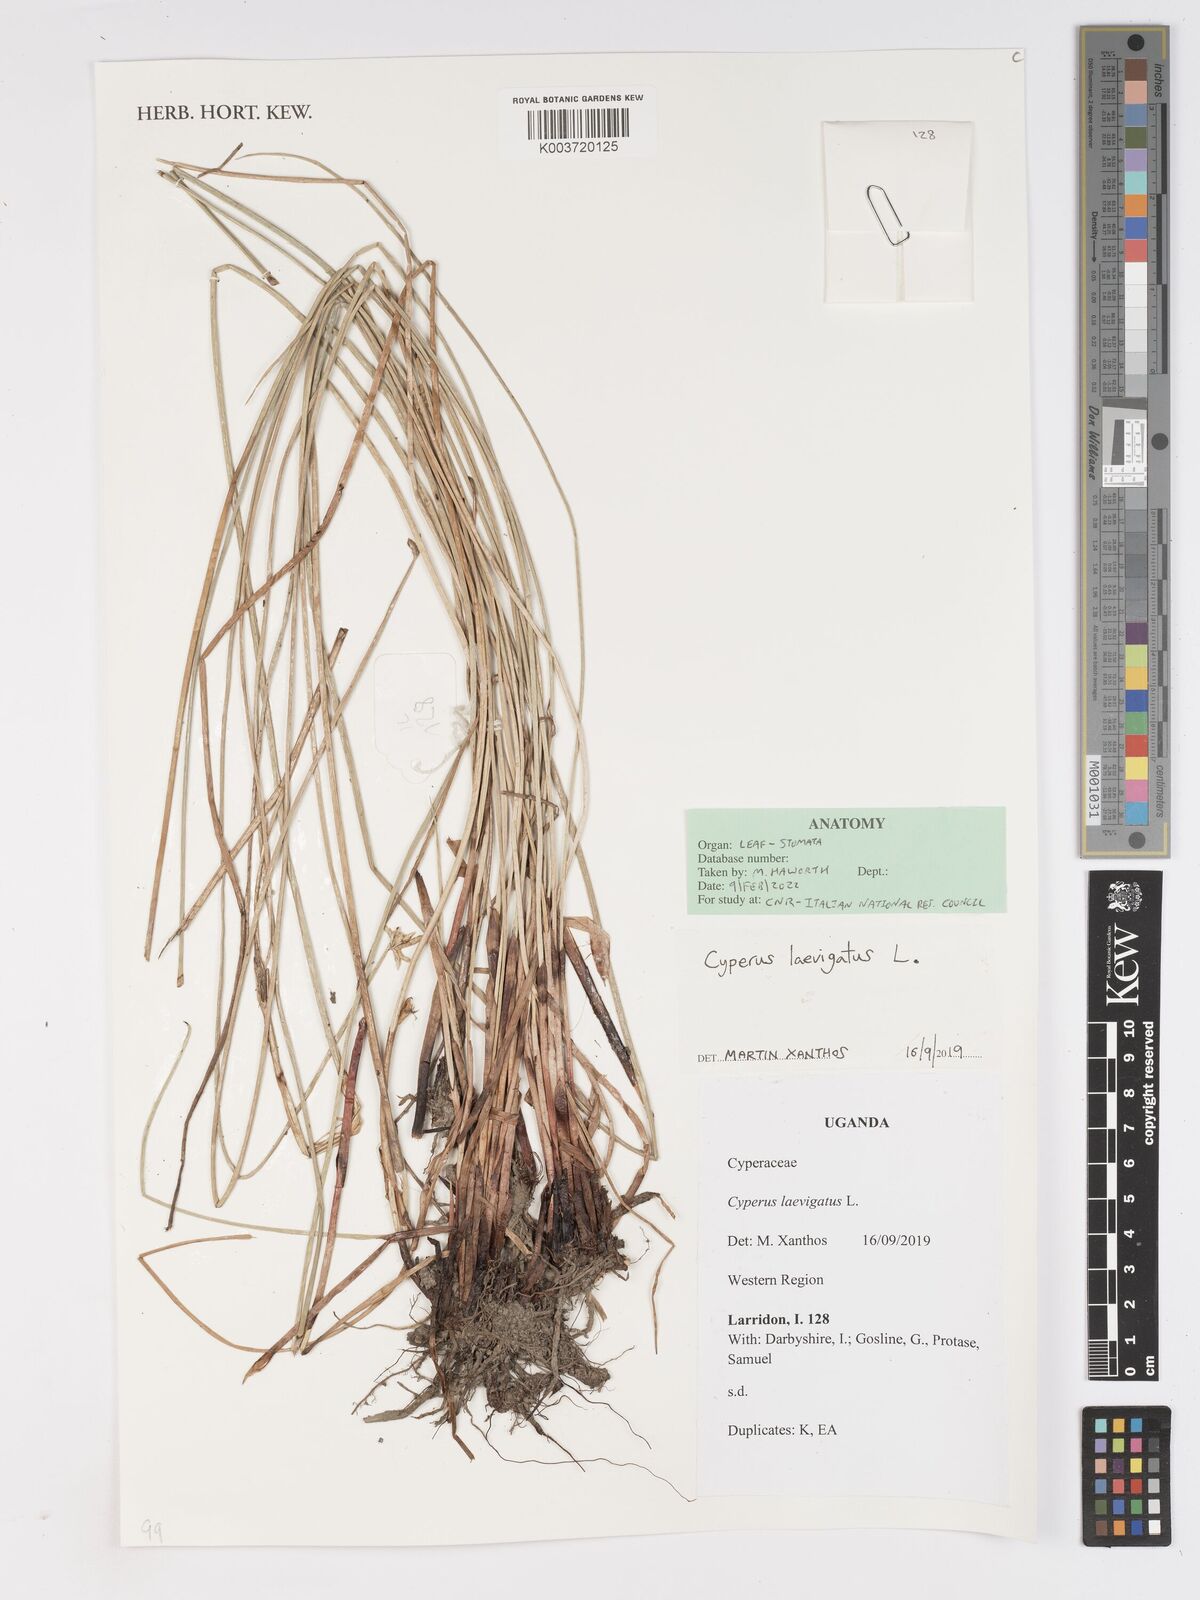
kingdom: Plantae
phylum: Tracheophyta
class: Liliopsida
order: Poales
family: Cyperaceae
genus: Cyperus
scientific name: Cyperus laevigatus
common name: Smooth flat sedge
